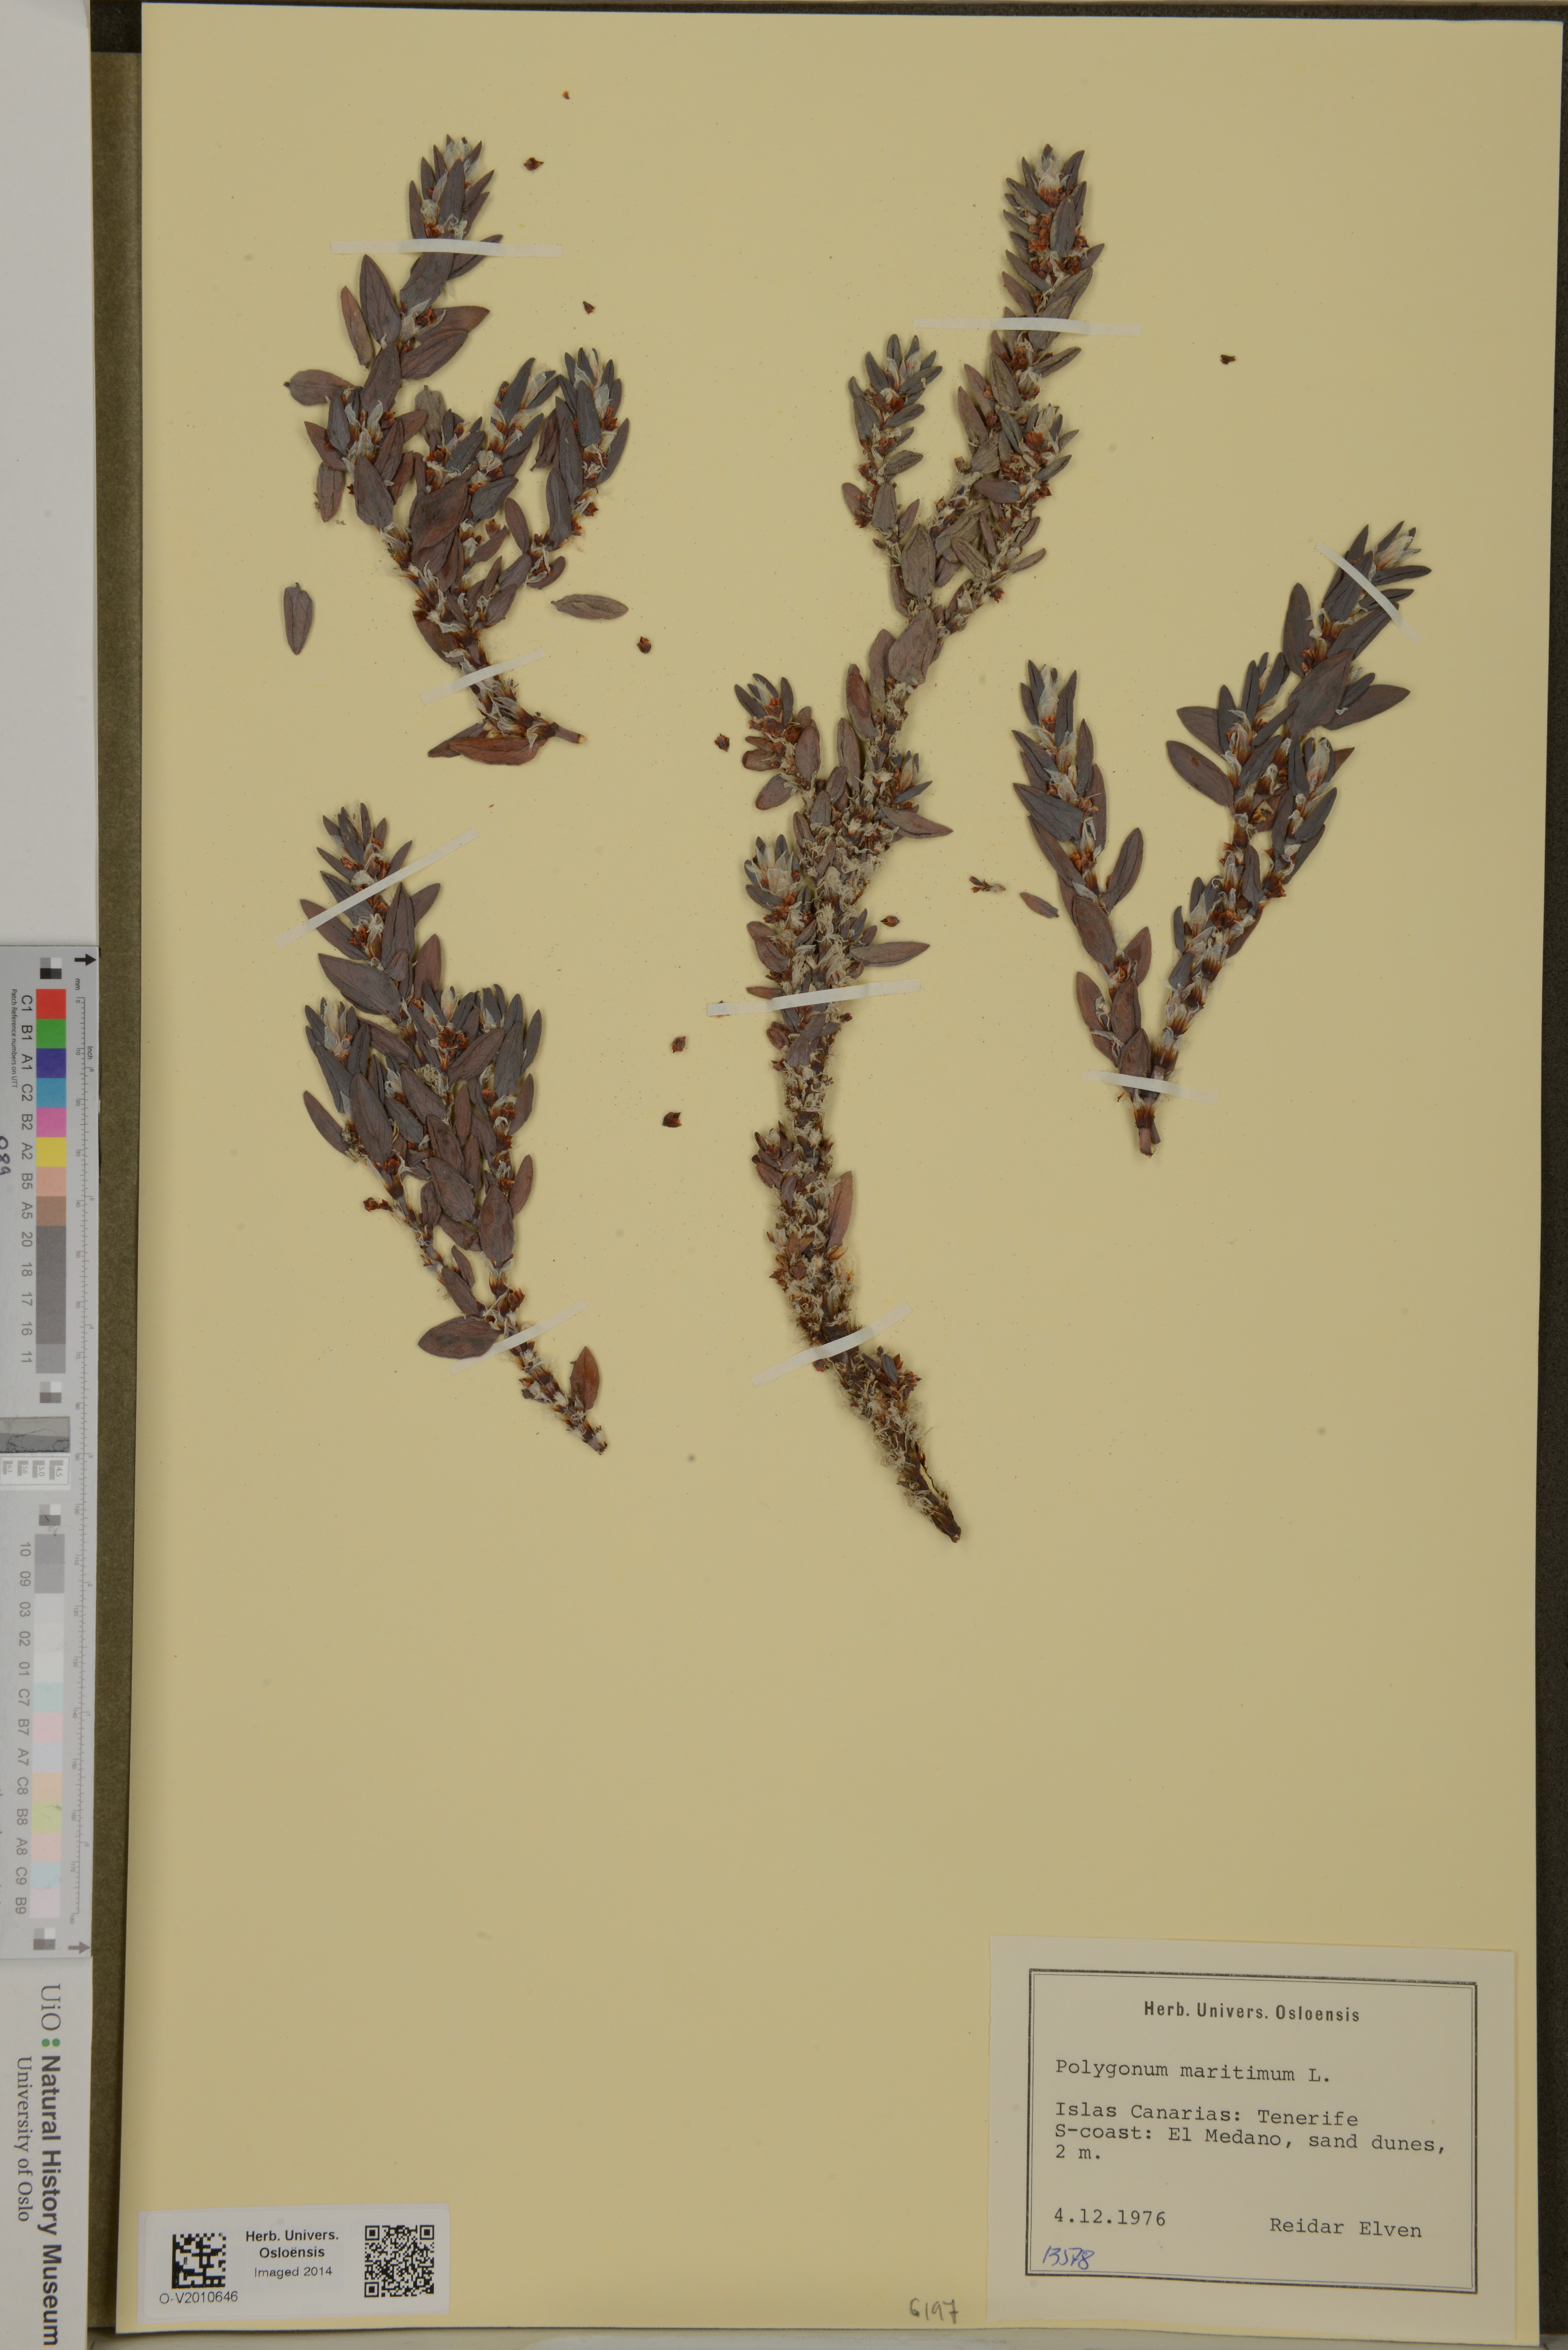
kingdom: Plantae
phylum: Tracheophyta
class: Magnoliopsida
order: Caryophyllales
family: Polygonaceae
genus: Polygonum
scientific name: Polygonum maritimum
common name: Sea knotgrass
